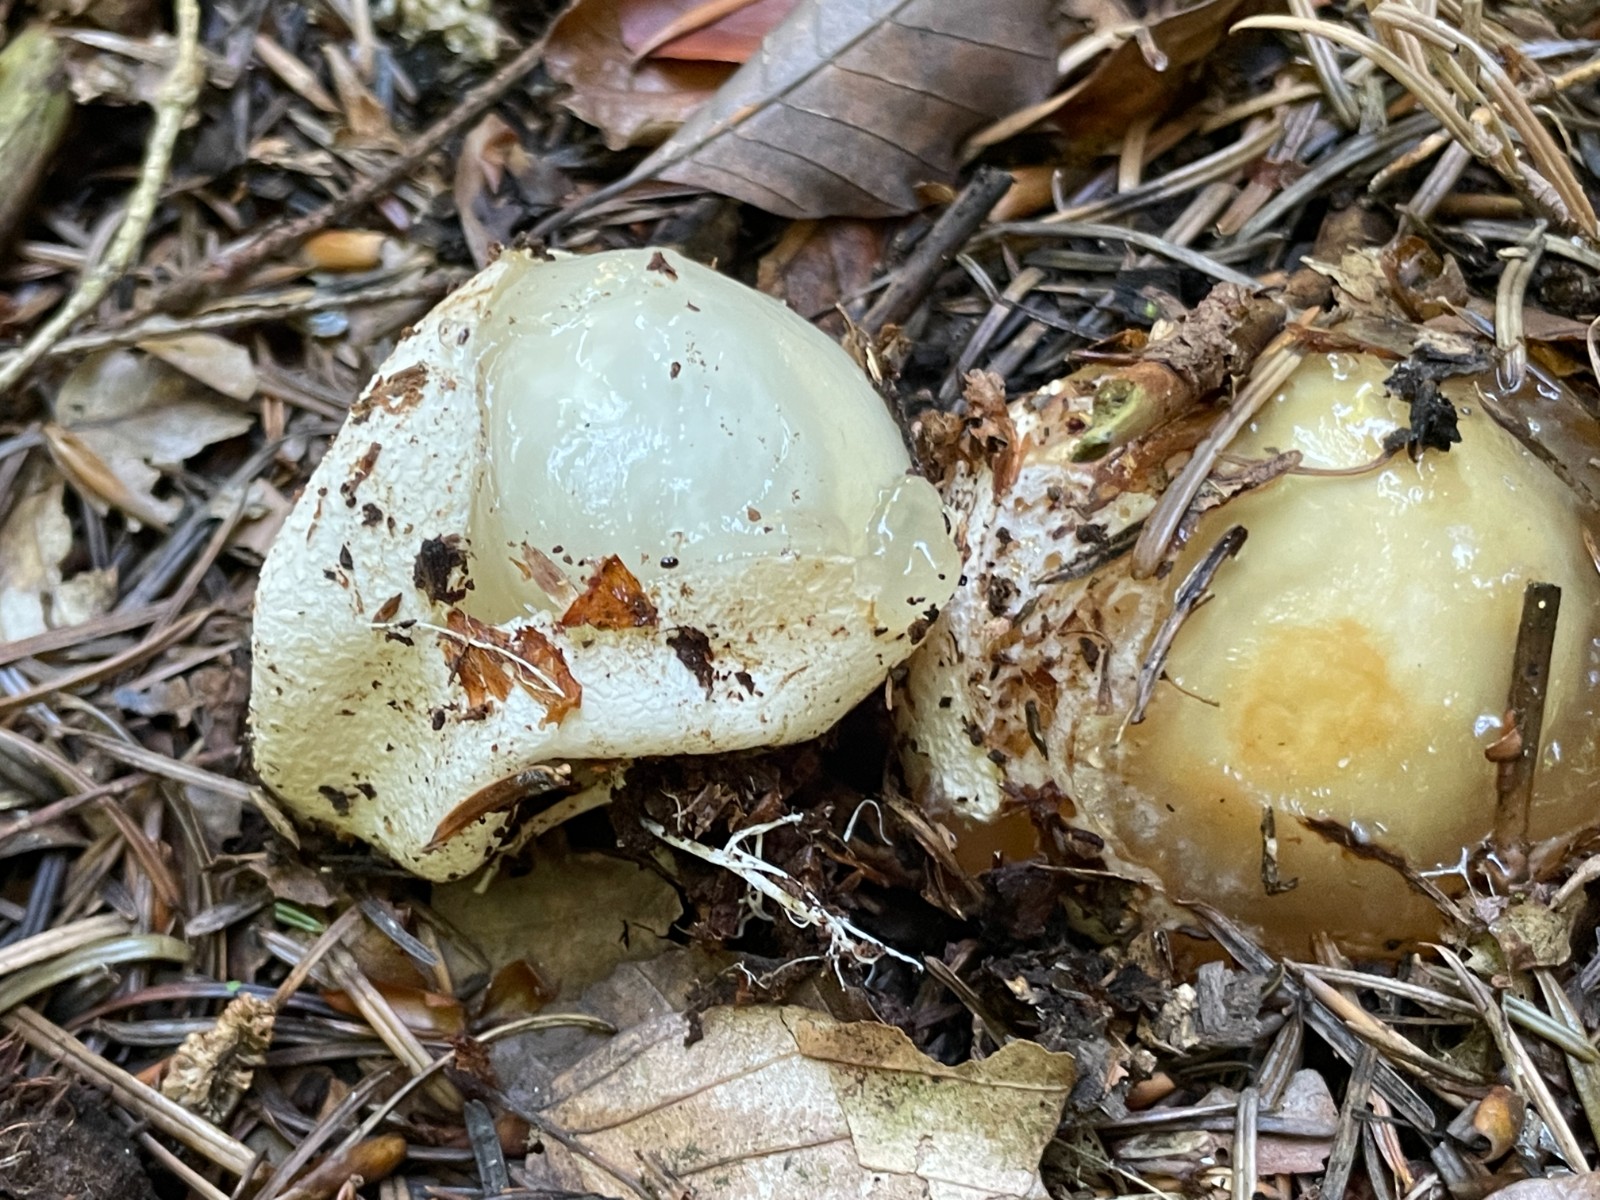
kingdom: Fungi
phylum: Basidiomycota
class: Agaricomycetes
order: Phallales
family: Phallaceae
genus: Phallus
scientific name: Phallus impudicus
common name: almindelig stinksvamp
